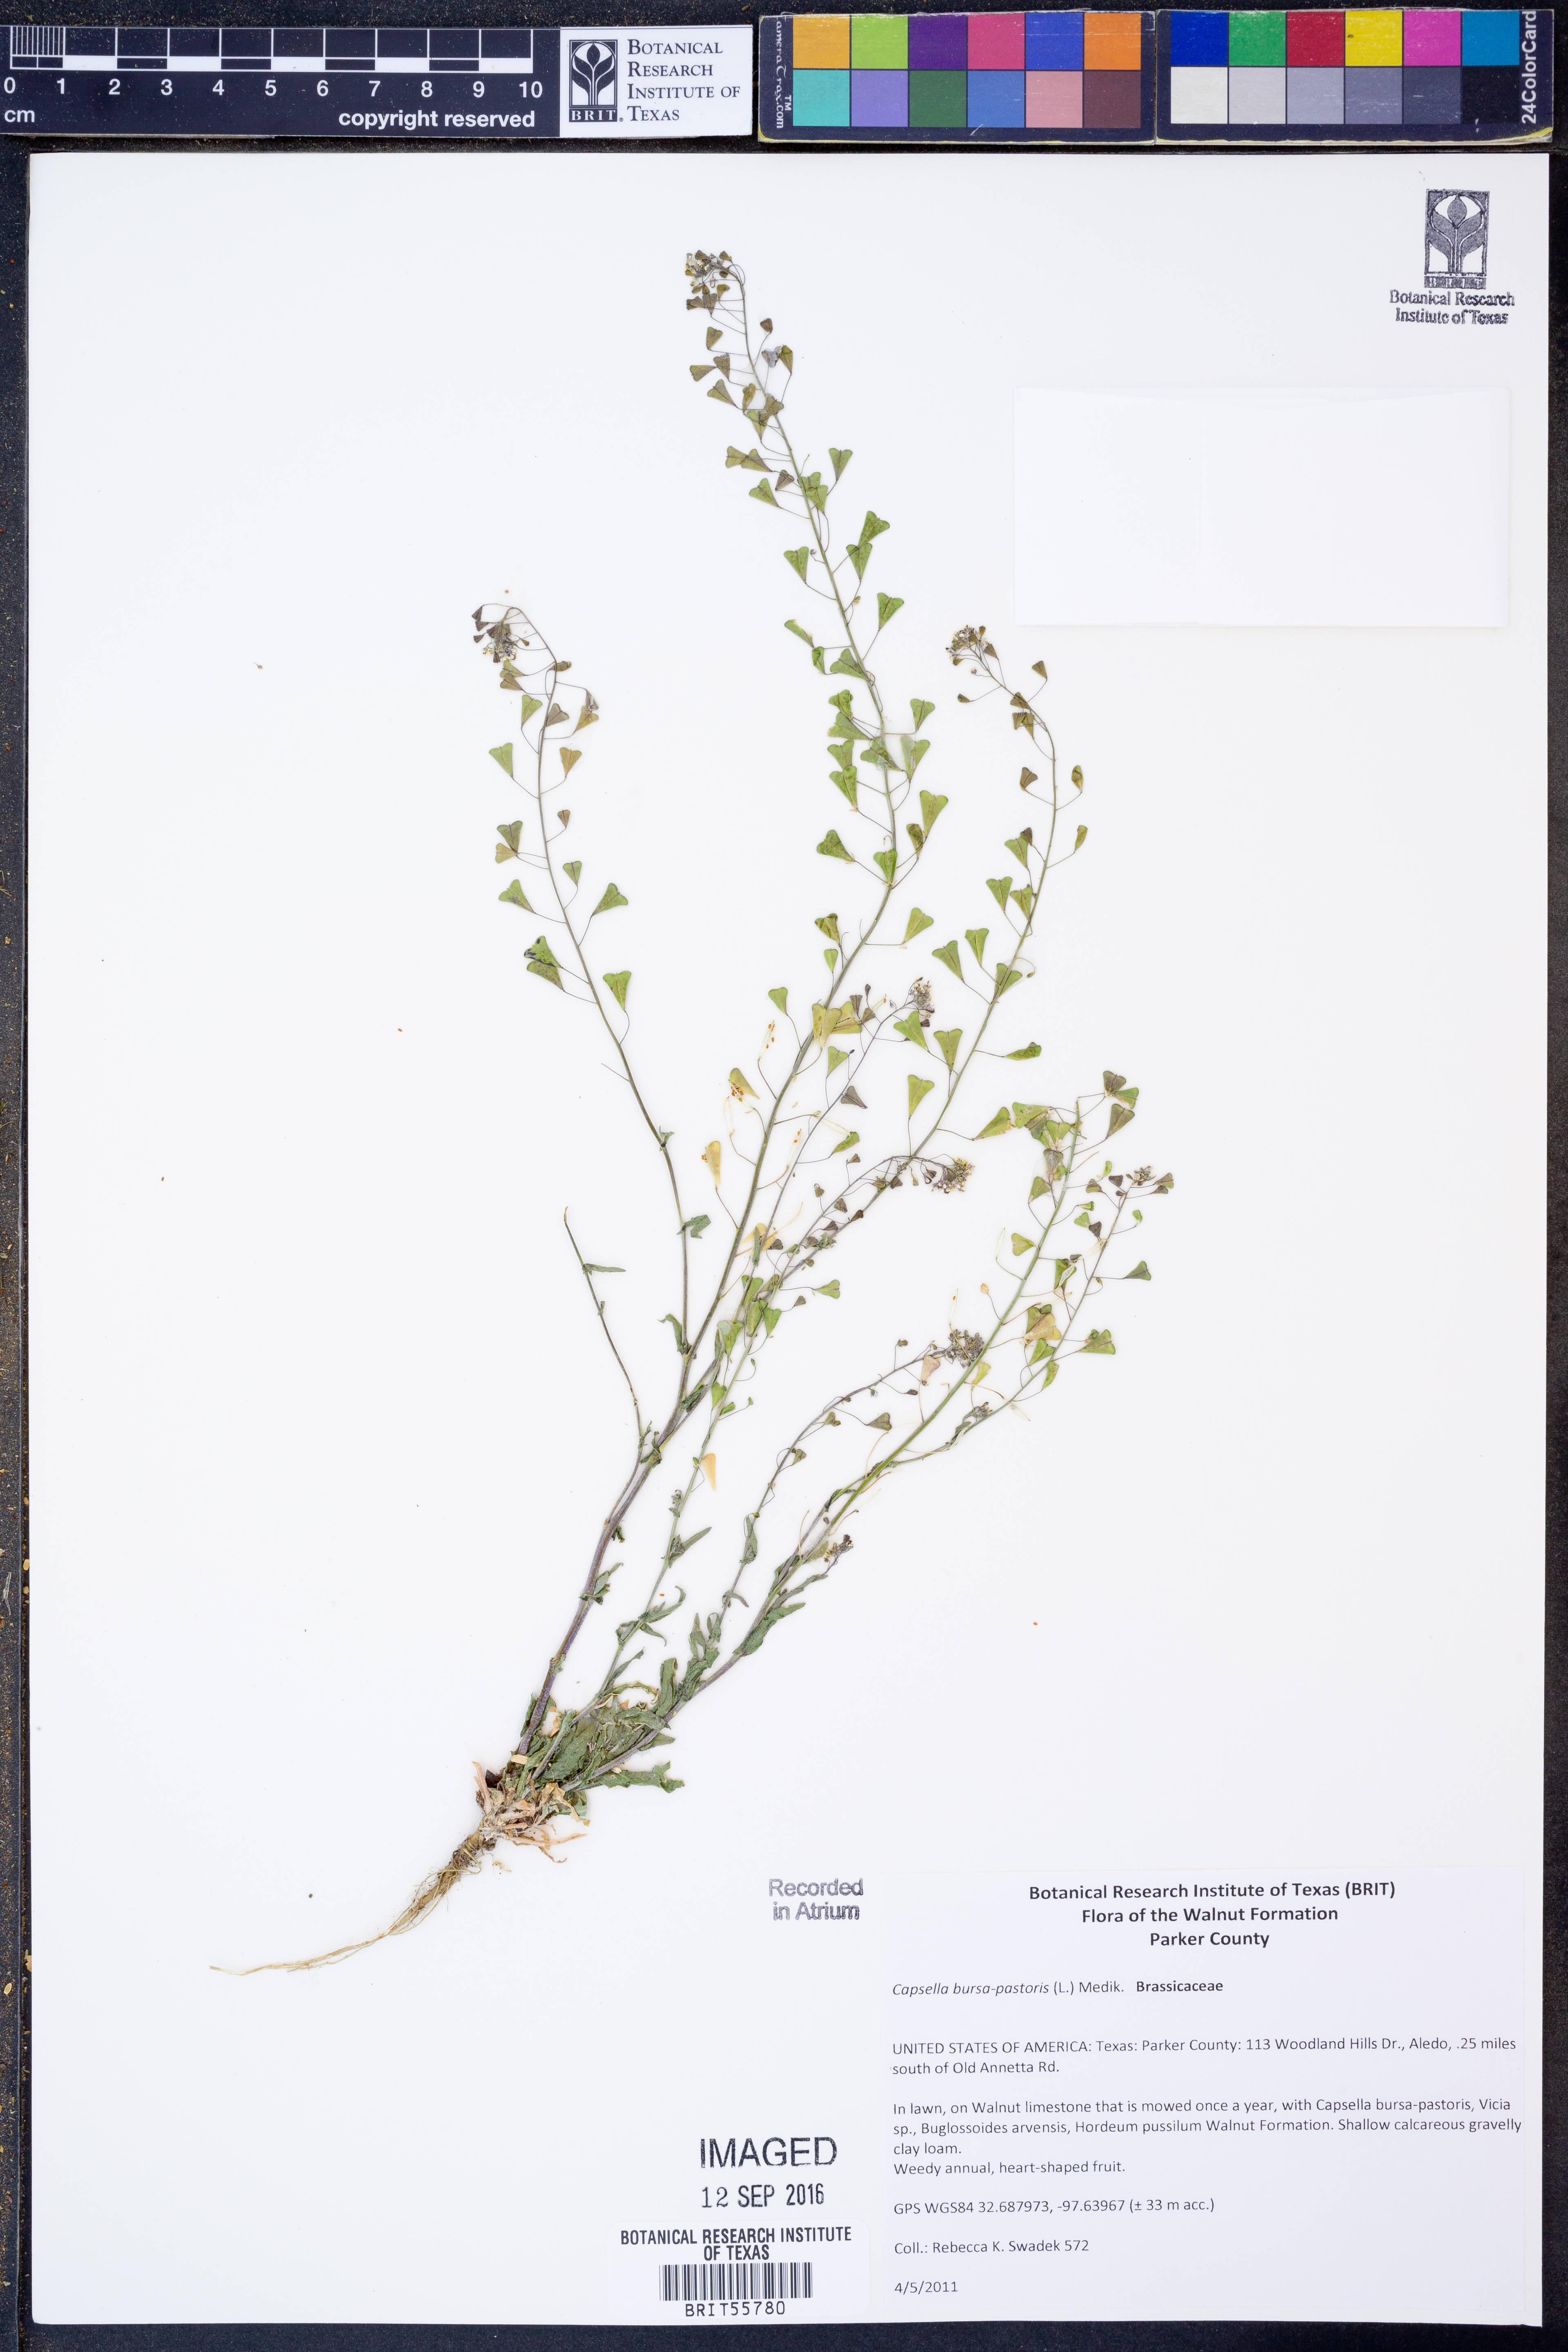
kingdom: Plantae
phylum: Tracheophyta
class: Magnoliopsida
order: Brassicales
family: Brassicaceae
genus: Capsella
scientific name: Capsella bursa-pastoris
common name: Shepherd's purse
